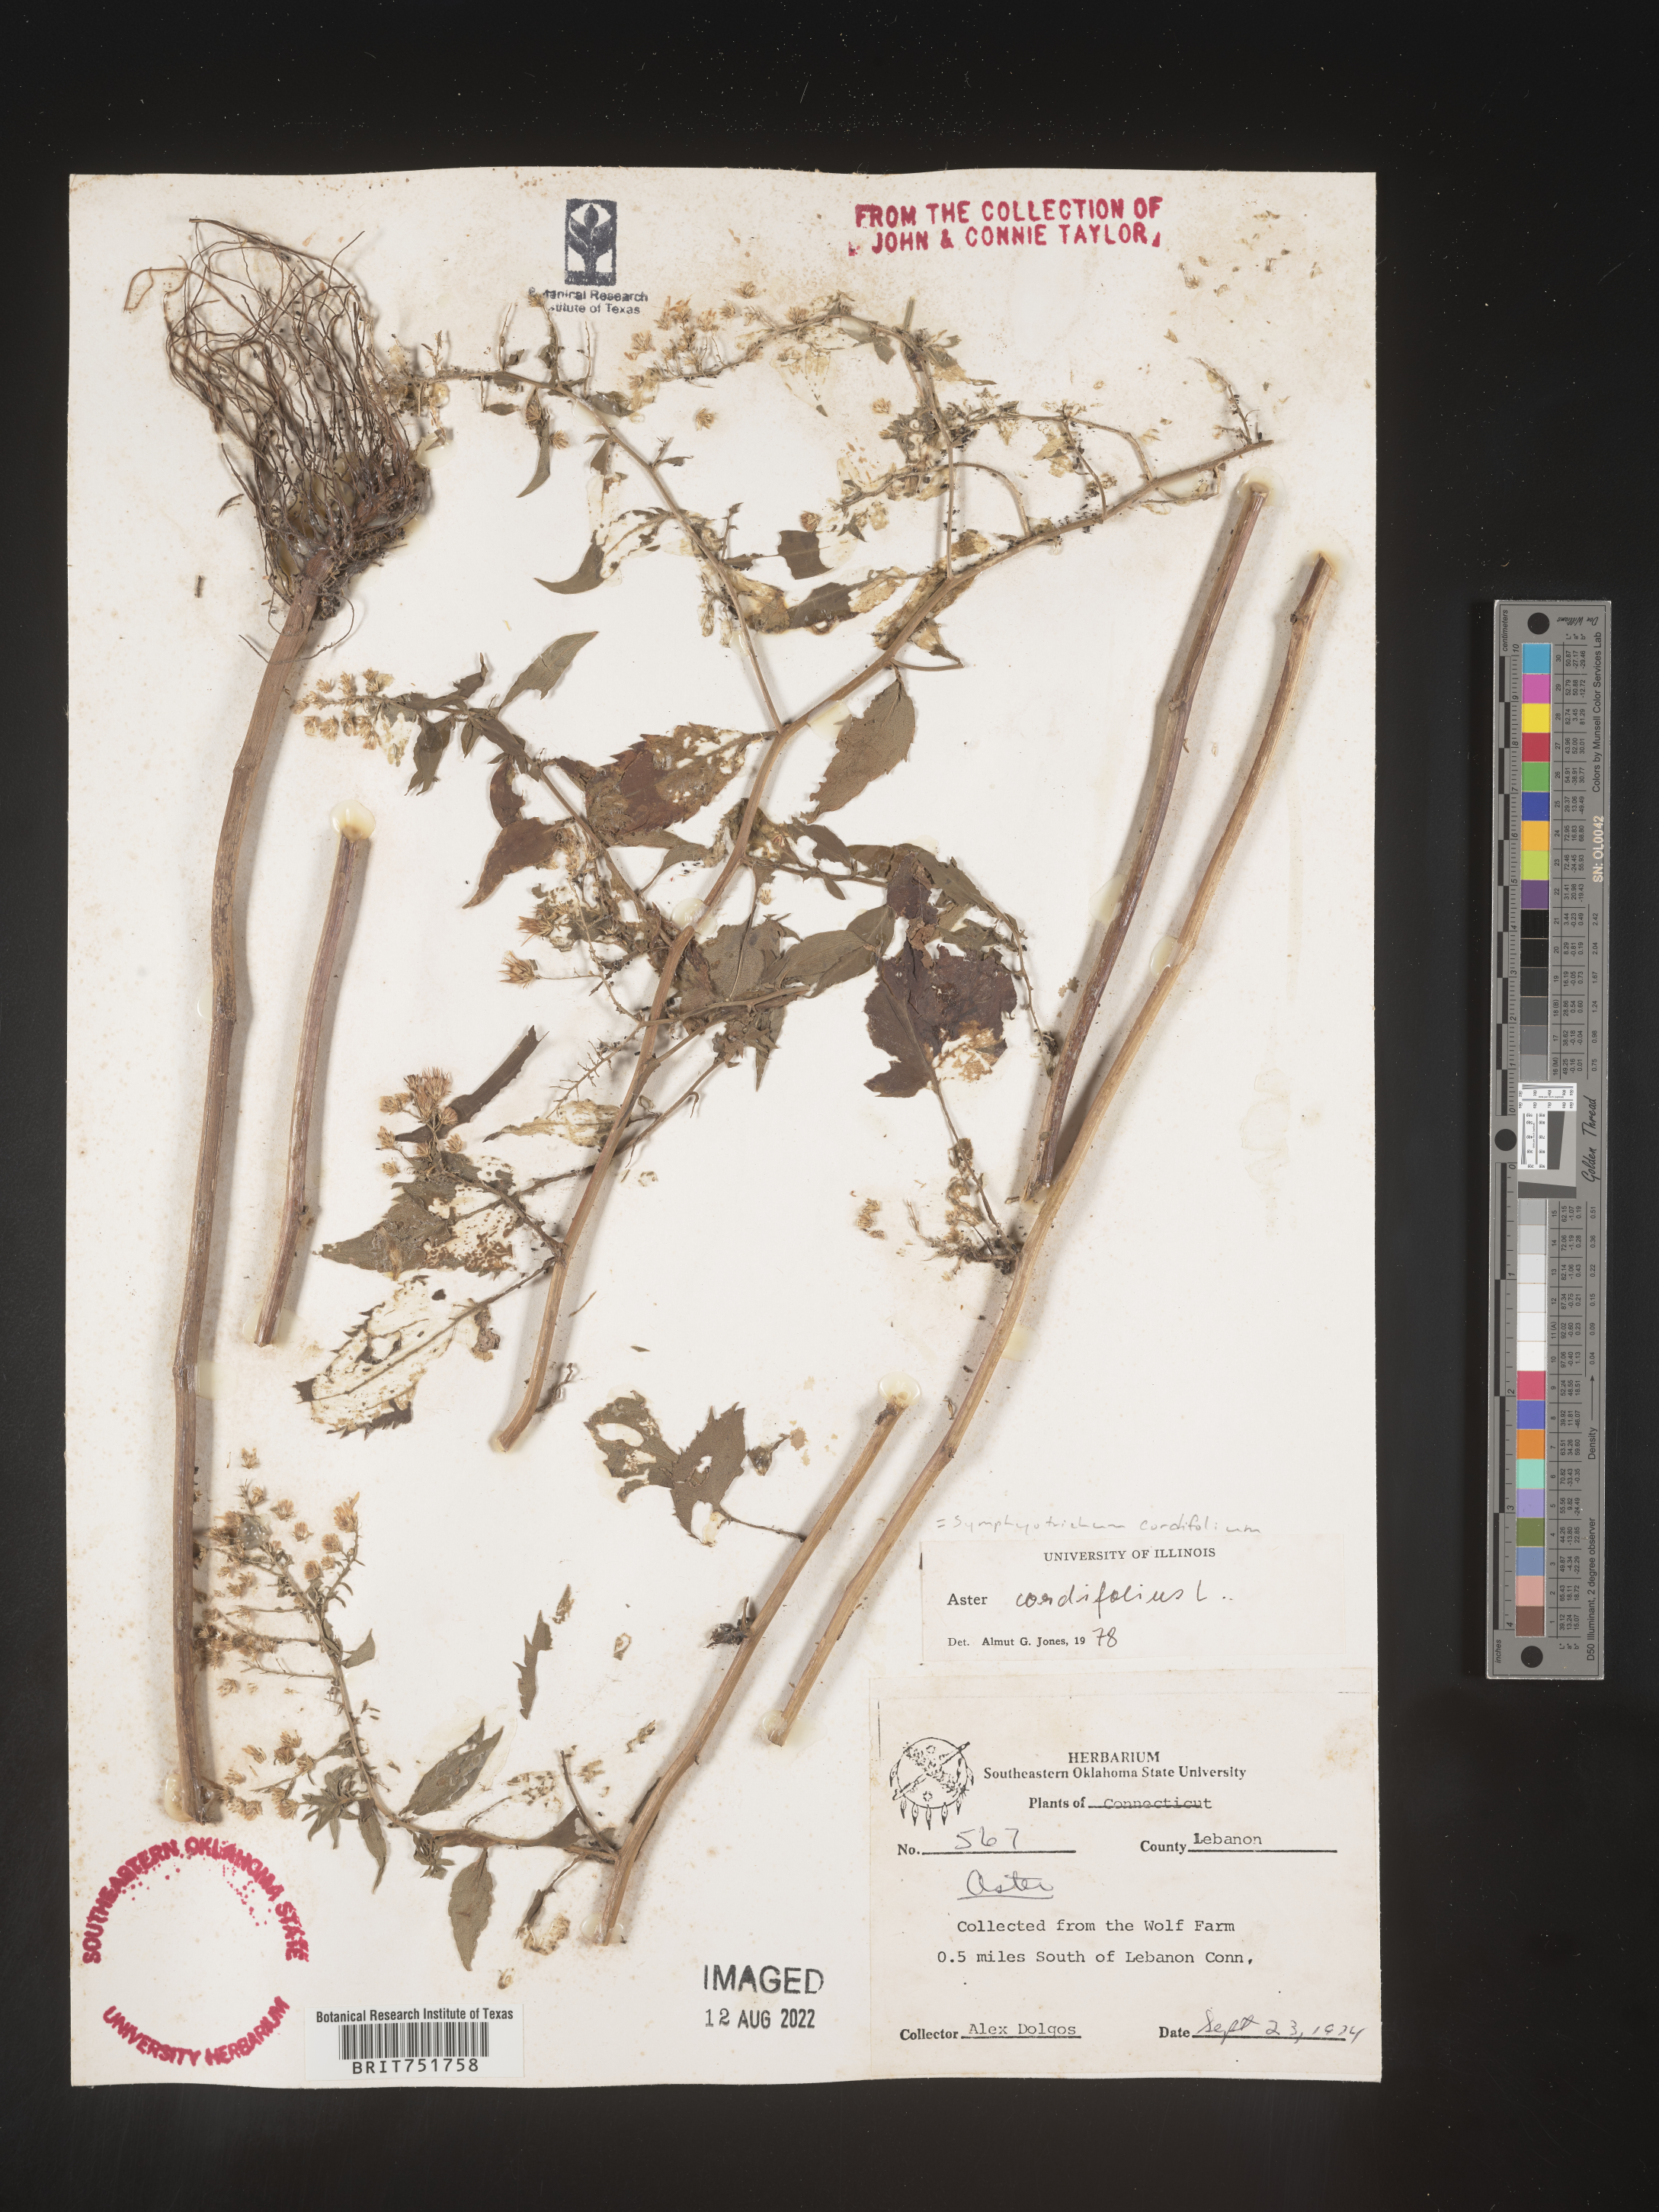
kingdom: Plantae
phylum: Tracheophyta
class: Magnoliopsida
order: Asterales
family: Asteraceae
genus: Symphyotrichum
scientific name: Symphyotrichum cordifolium
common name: Beeweed
